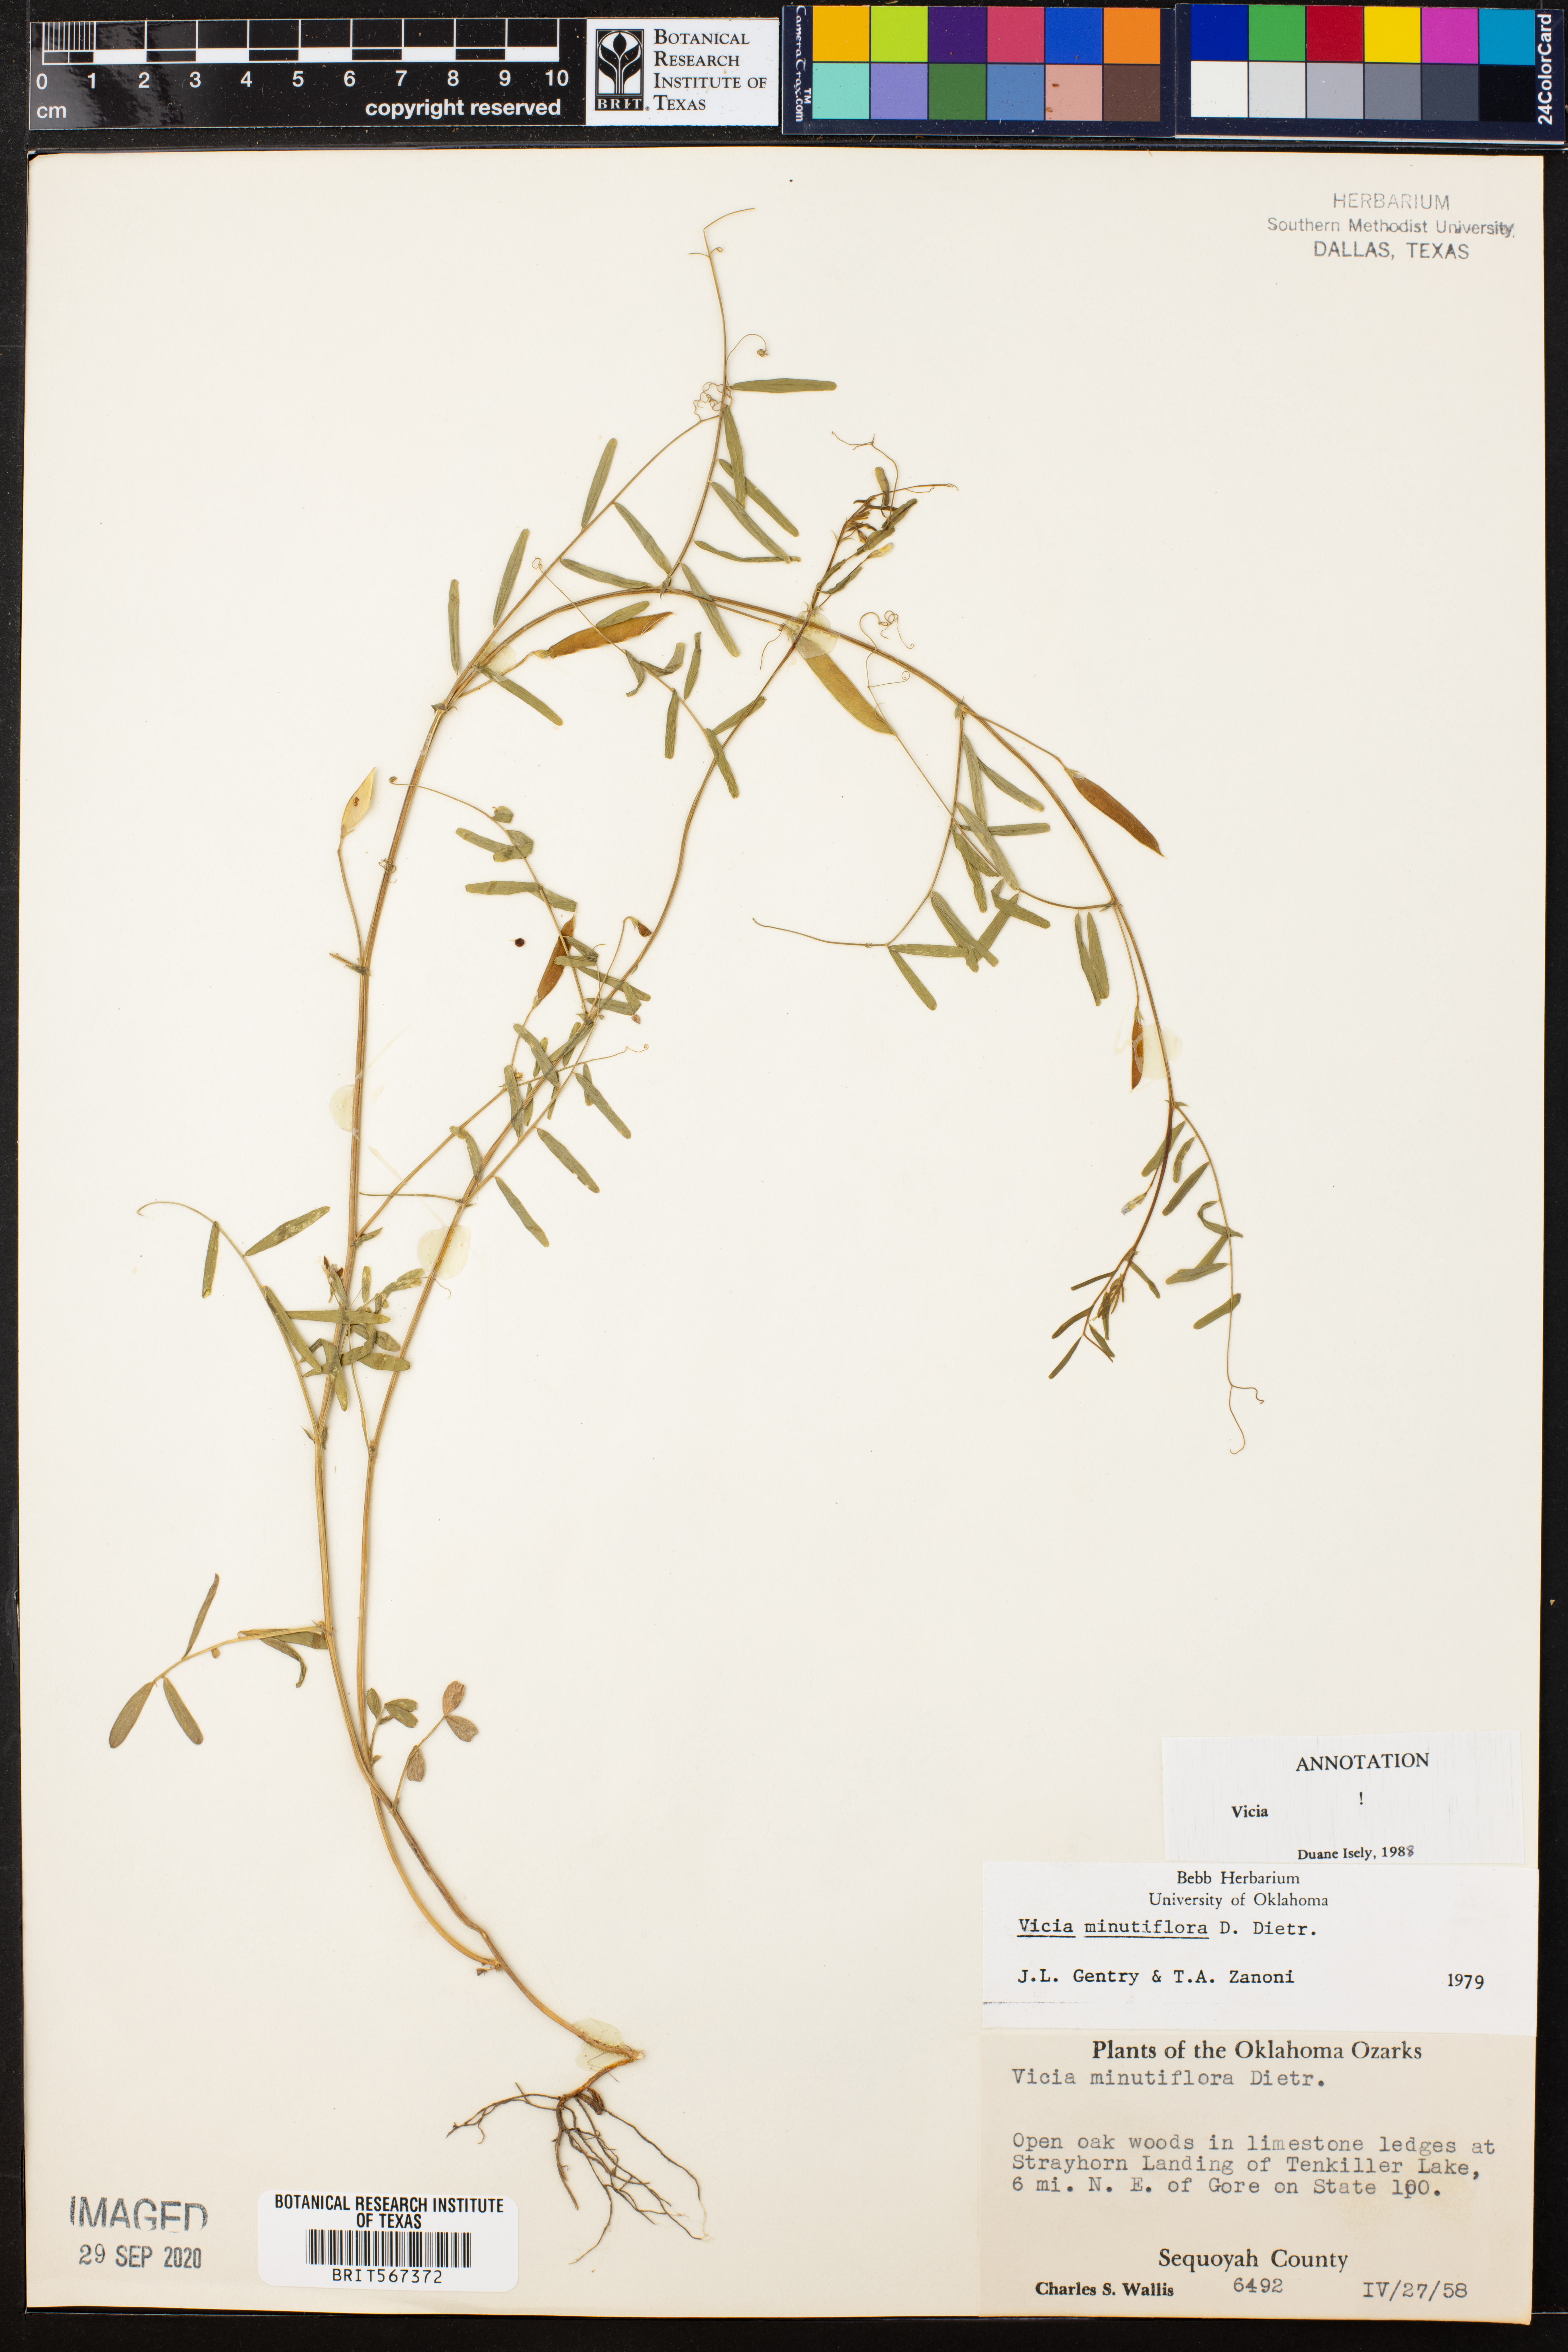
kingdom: Plantae
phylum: Tracheophyta
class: Magnoliopsida
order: Fabales
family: Fabaceae
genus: Vicia
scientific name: Vicia minutiflora
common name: Pygmy-flower vetch
